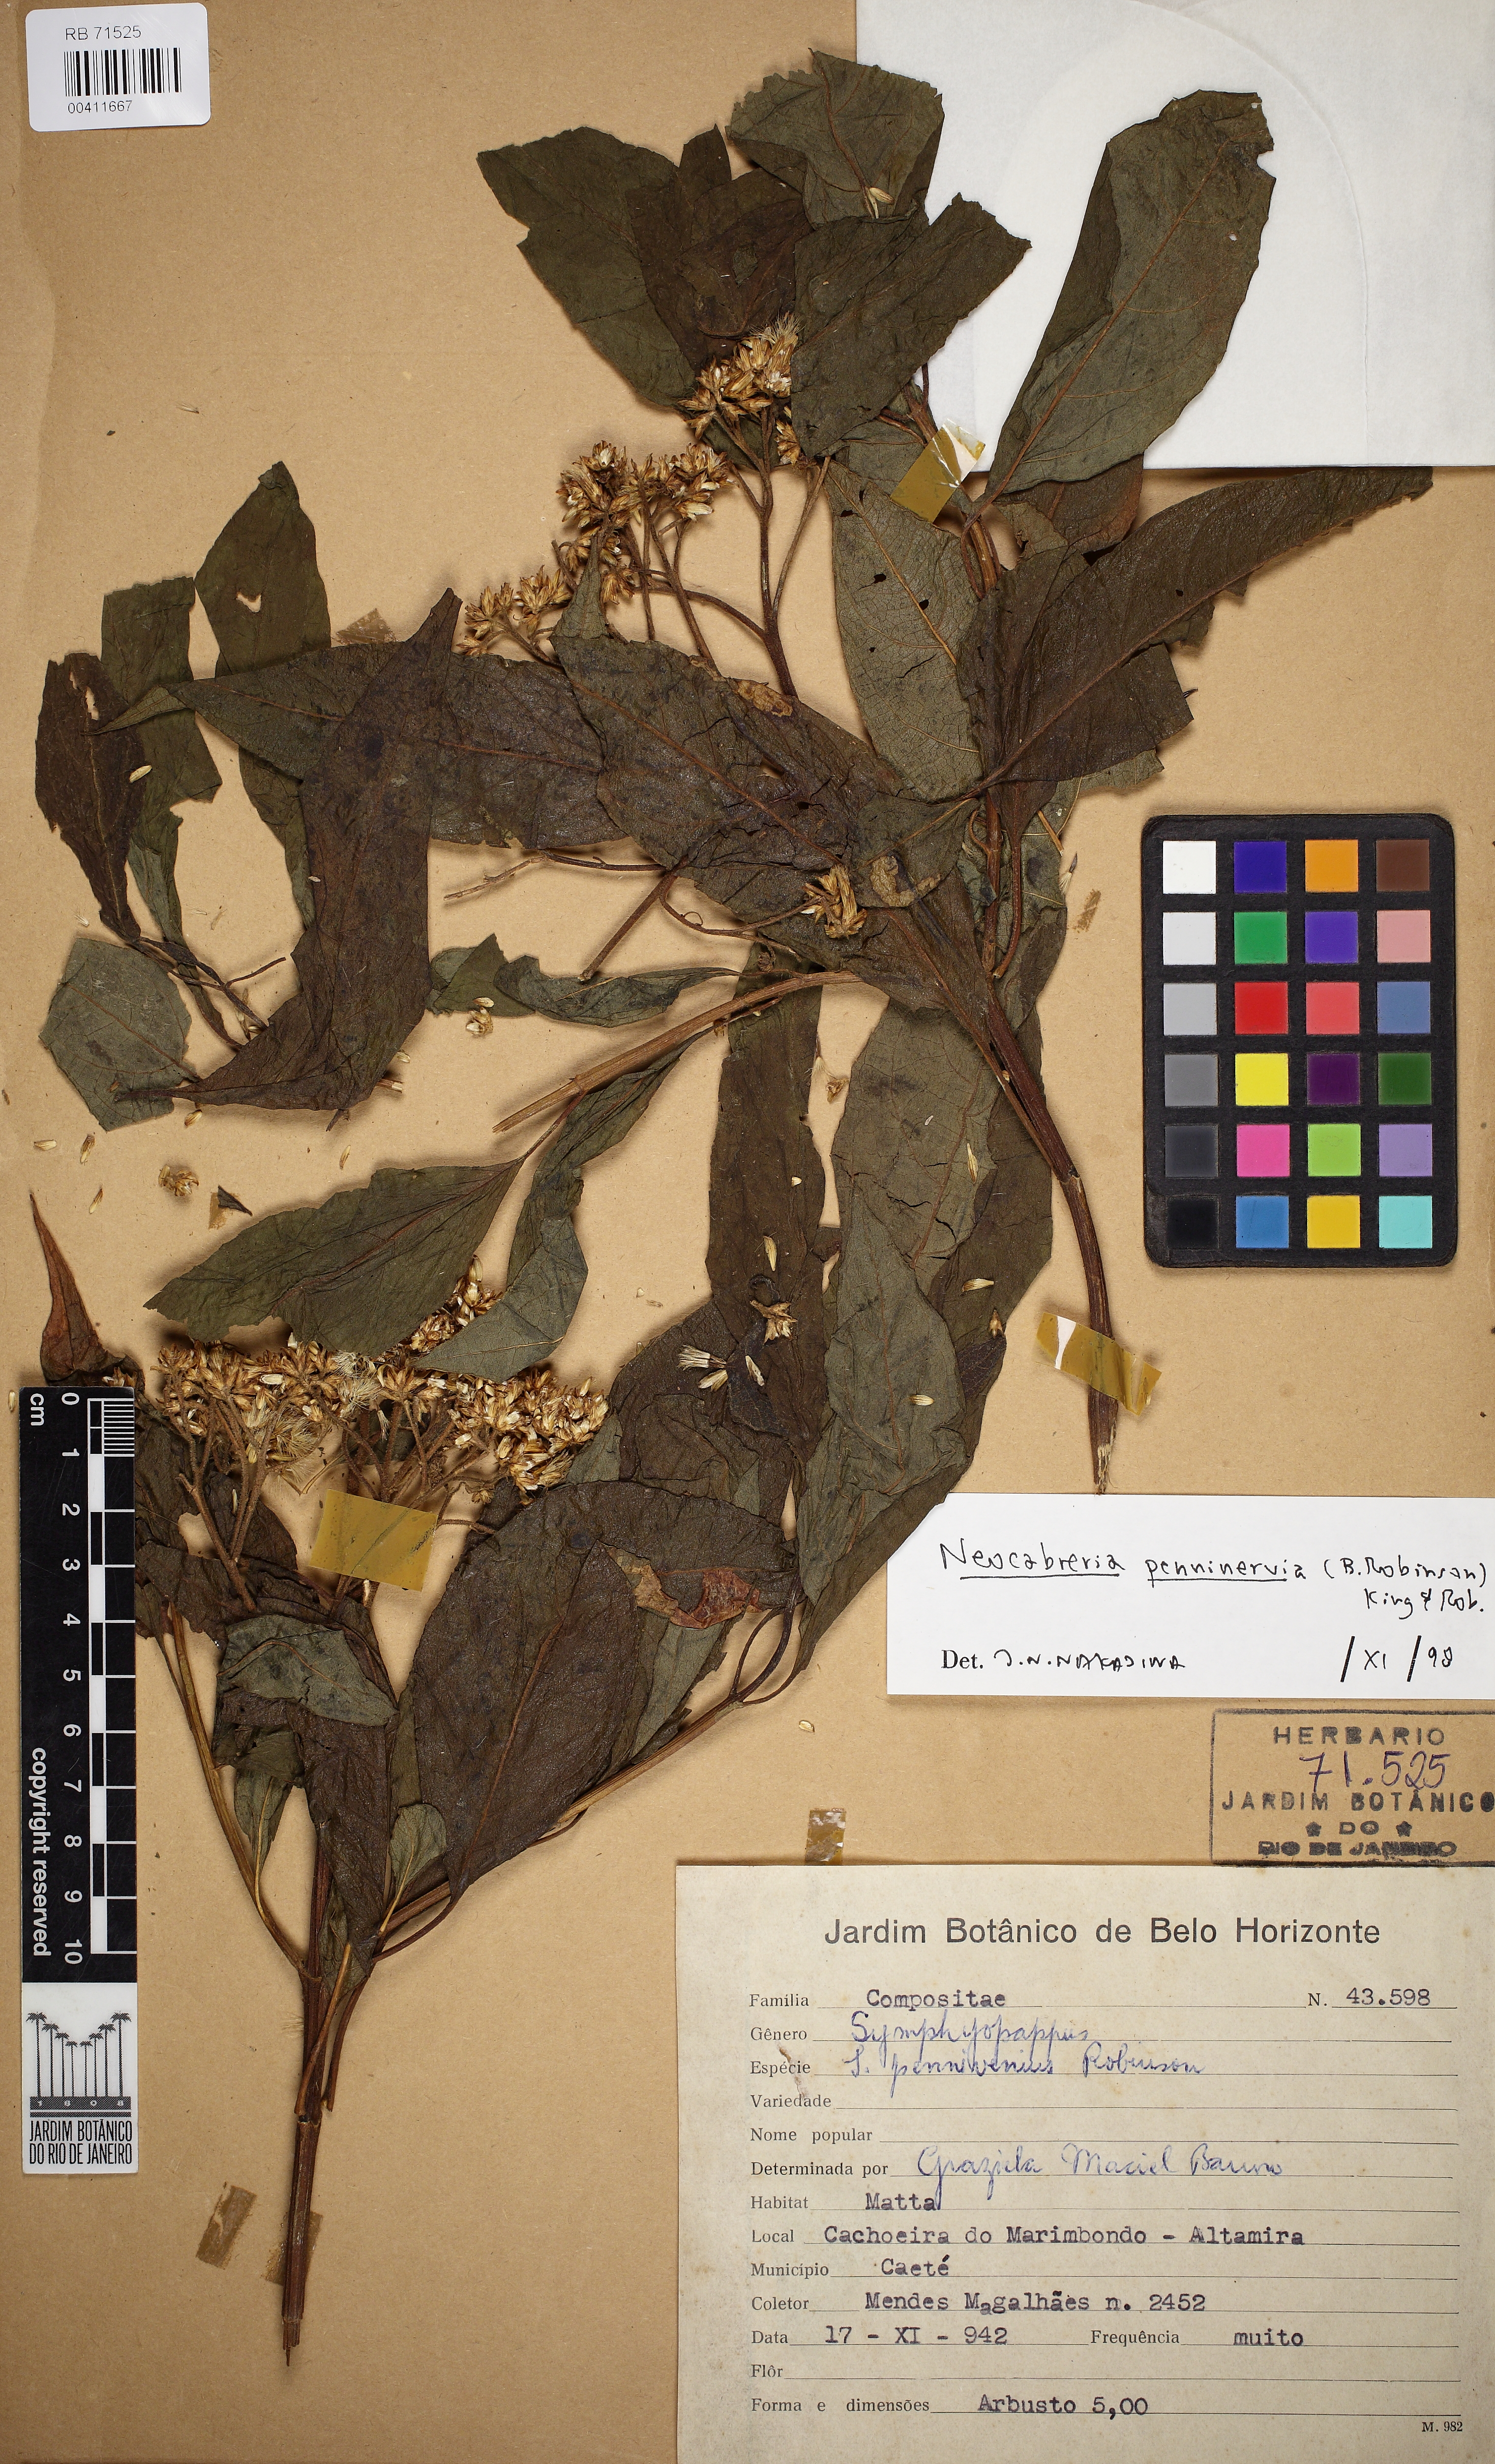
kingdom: Plantae
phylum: Tracheophyta
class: Magnoliopsida
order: Asterales
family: Asteraceae
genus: Neocabreria
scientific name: Neocabreria pennivenia
